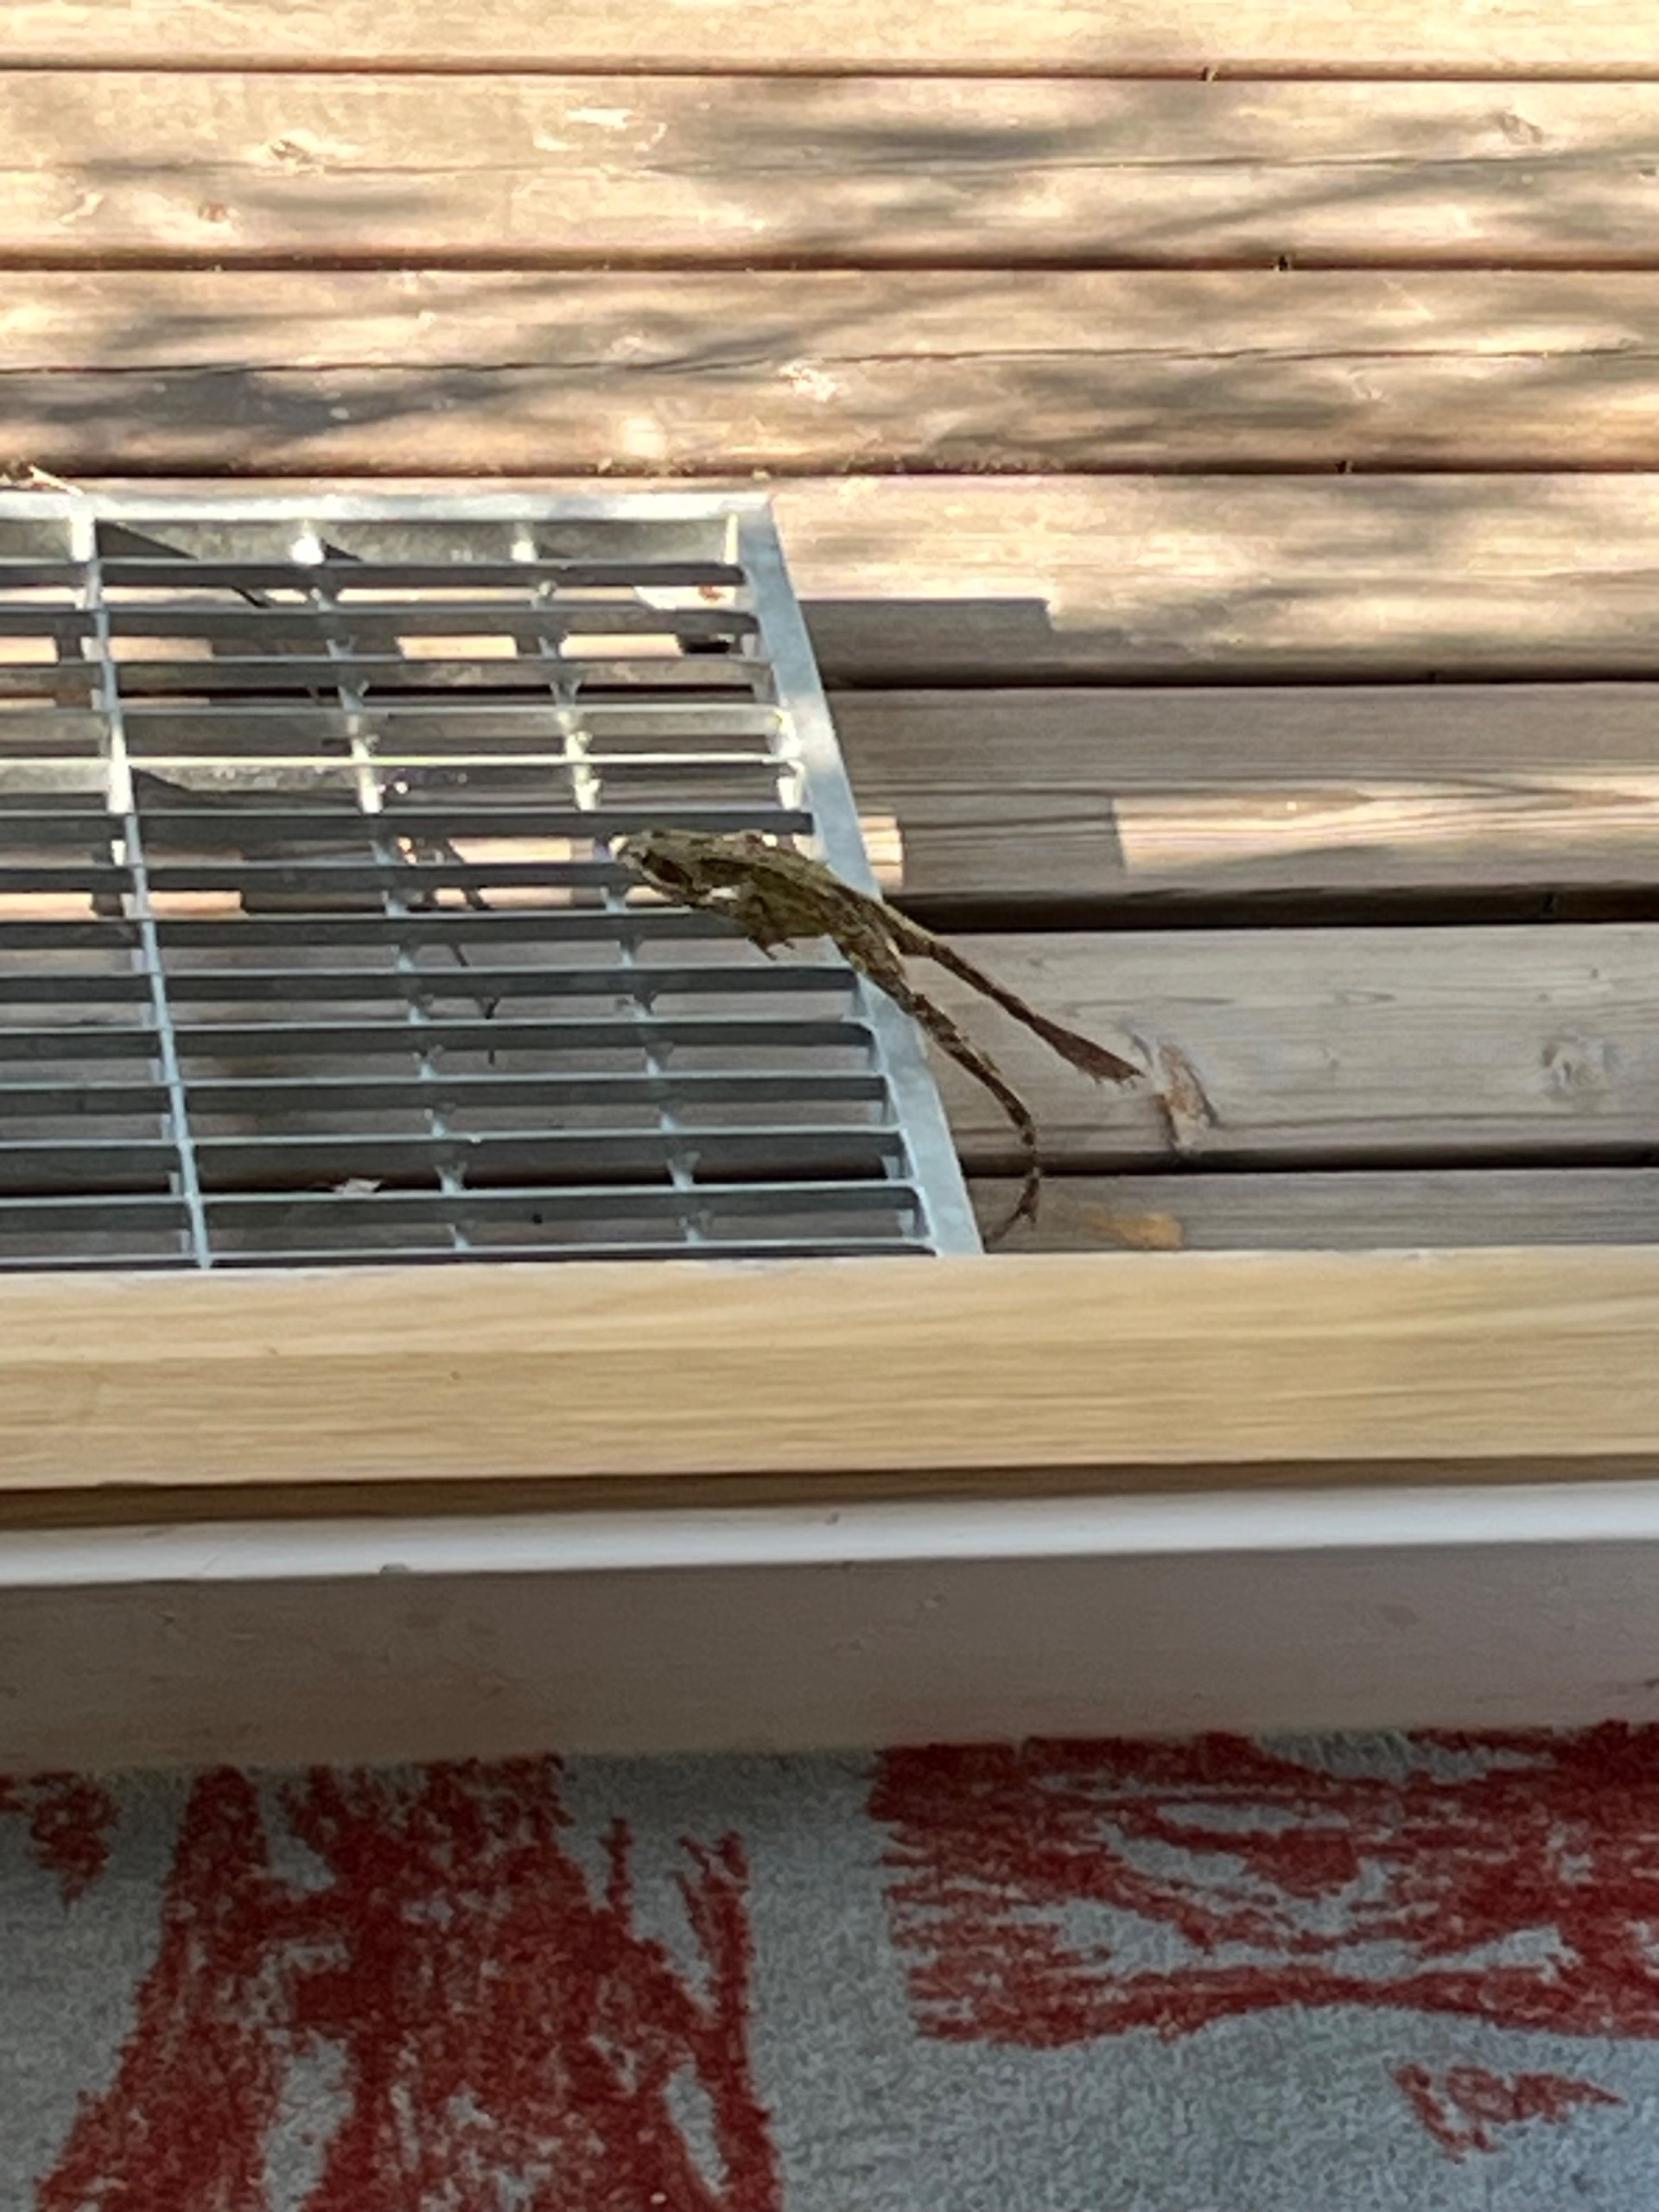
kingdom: Animalia
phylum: Chordata
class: Amphibia
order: Anura
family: Ranidae
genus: Rana
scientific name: Rana temporaria
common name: Butsnudet frø
